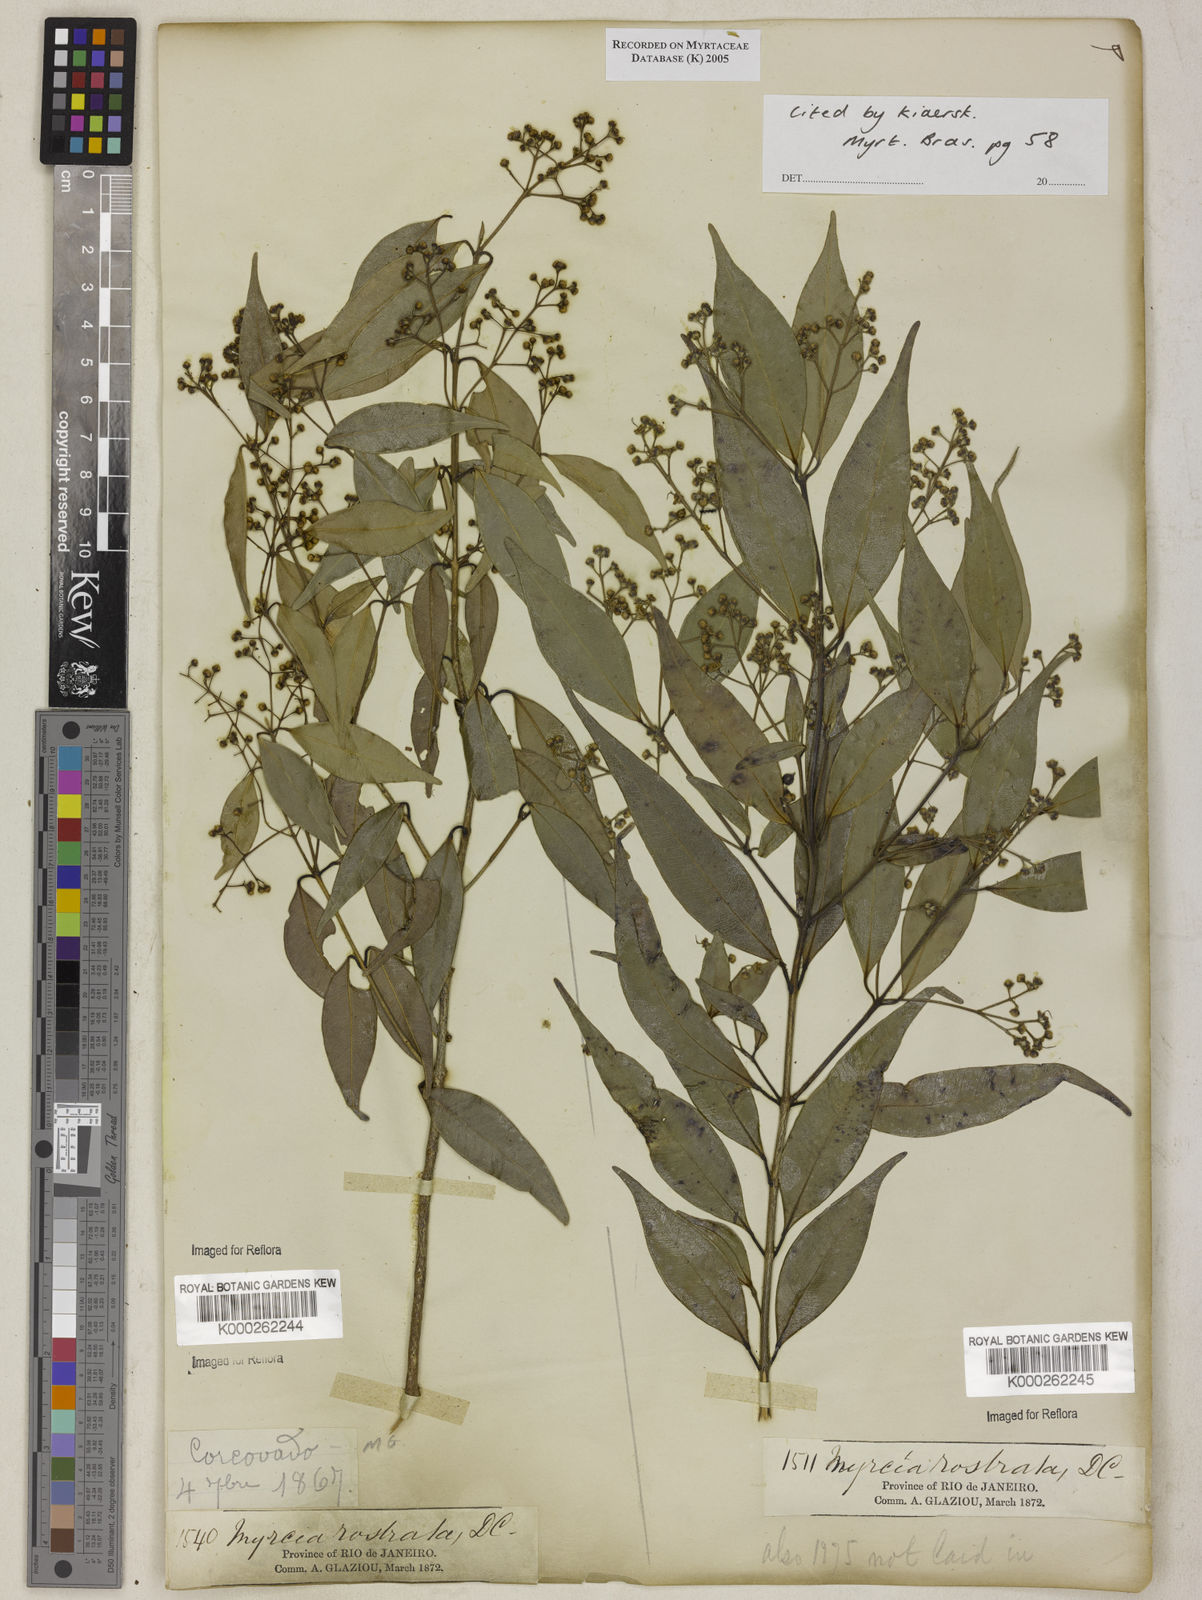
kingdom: Plantae
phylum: Tracheophyta
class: Magnoliopsida
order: Myrtales
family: Myrtaceae
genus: Myrcia
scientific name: Myrcia splendens
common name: Surinam cherry
